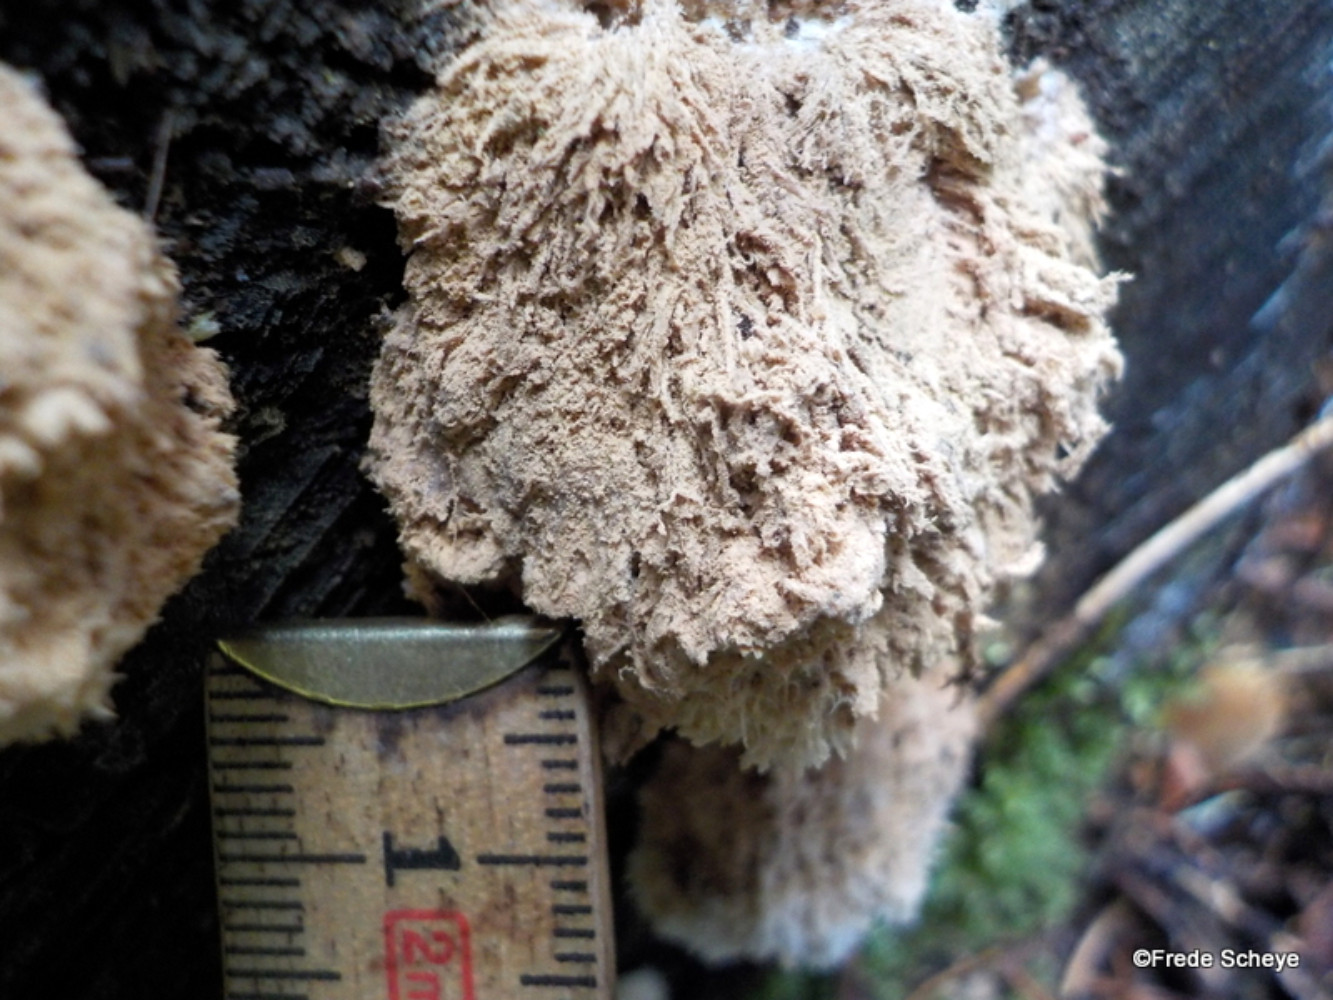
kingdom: Fungi
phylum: Basidiomycota
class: Agaricomycetes
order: Polyporales
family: Dacryobolaceae
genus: Postia
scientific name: Postia ptychogaster
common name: støvende kødporesvamp
